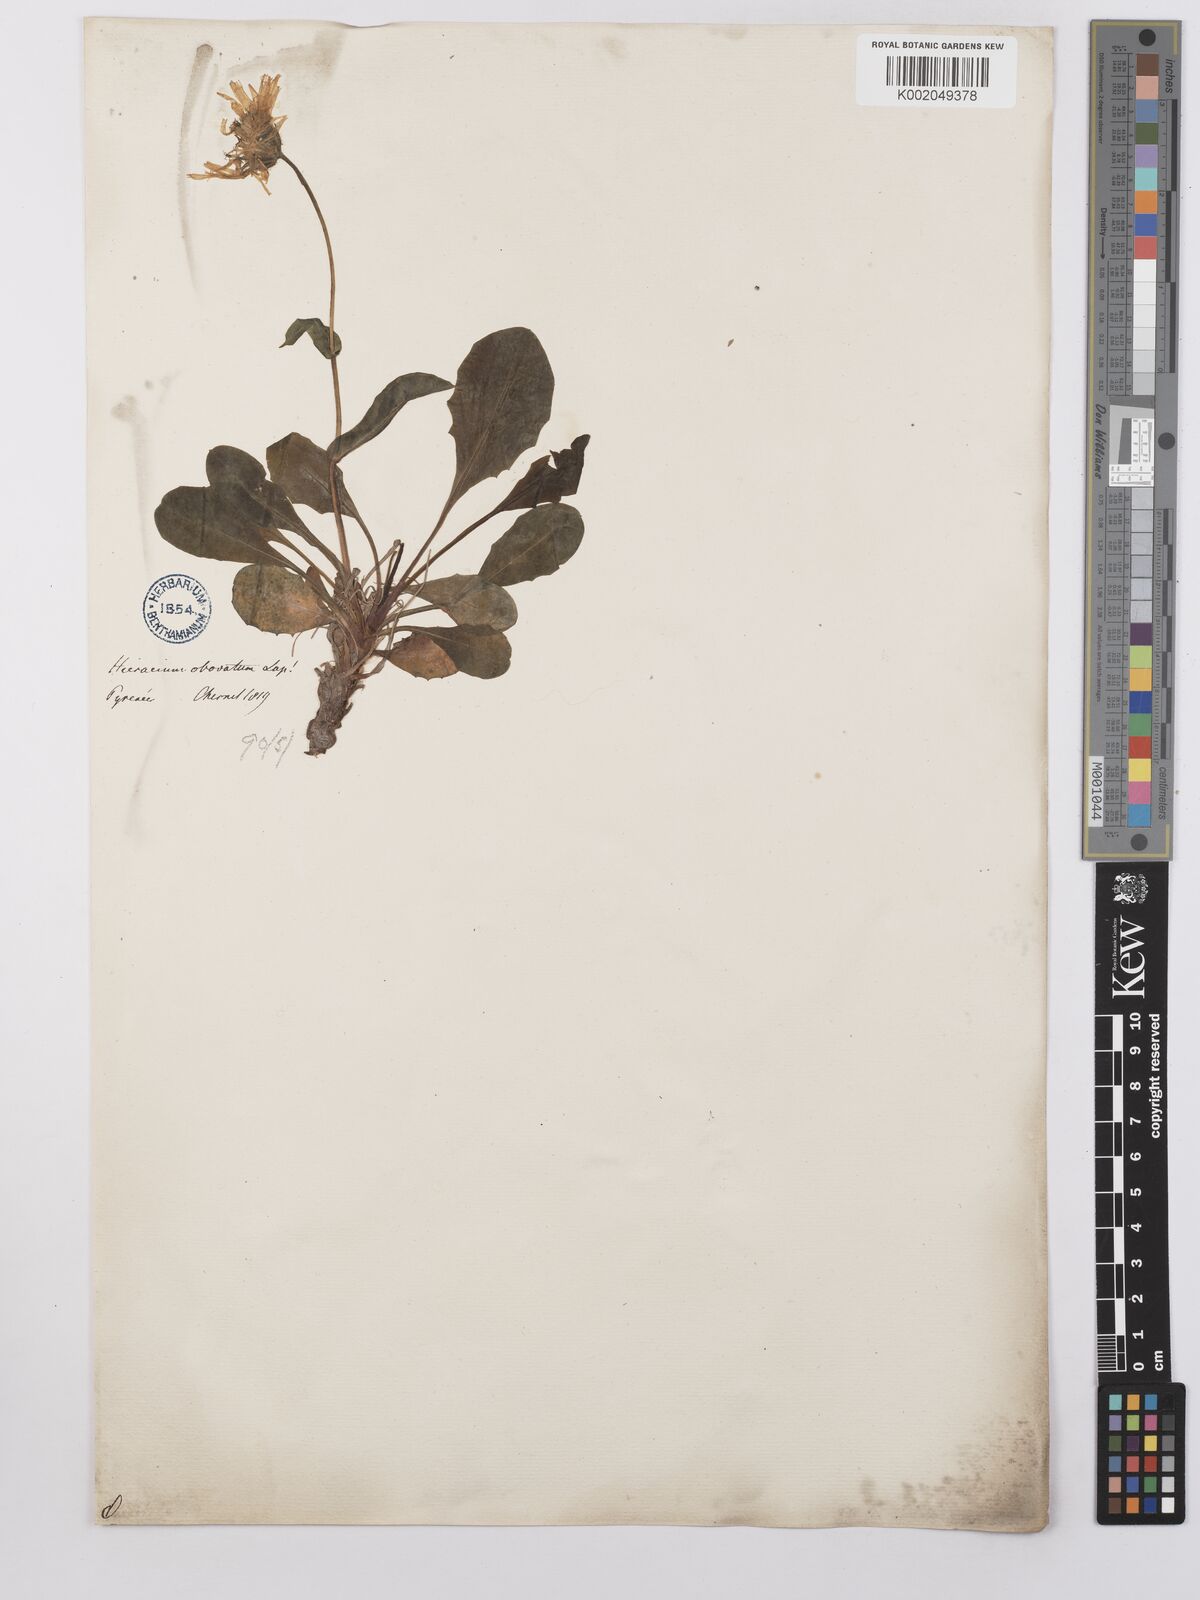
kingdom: Plantae
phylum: Tracheophyta
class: Magnoliopsida
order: Asterales
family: Asteraceae
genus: Hieracium
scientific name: Hieracium cerinthoides
